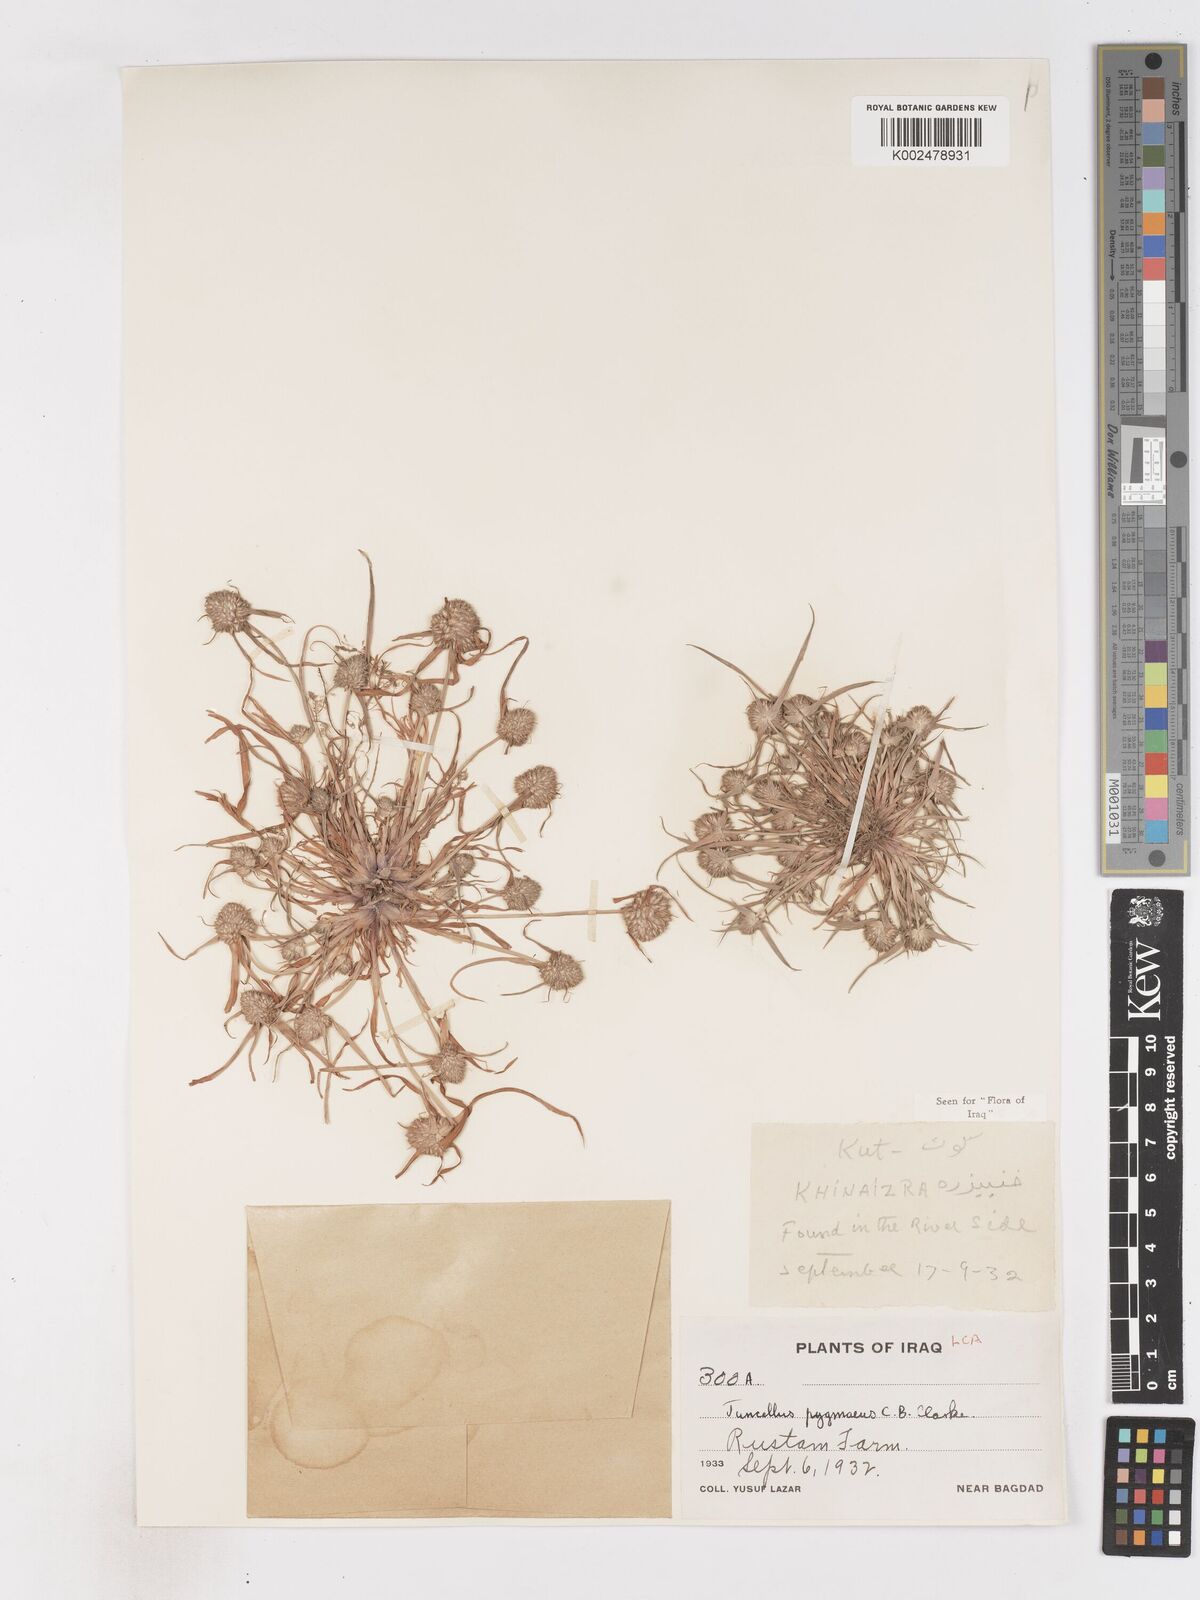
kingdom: Plantae
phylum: Tracheophyta
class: Liliopsida
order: Poales
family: Cyperaceae
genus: Cyperus
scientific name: Cyperus michelianus
